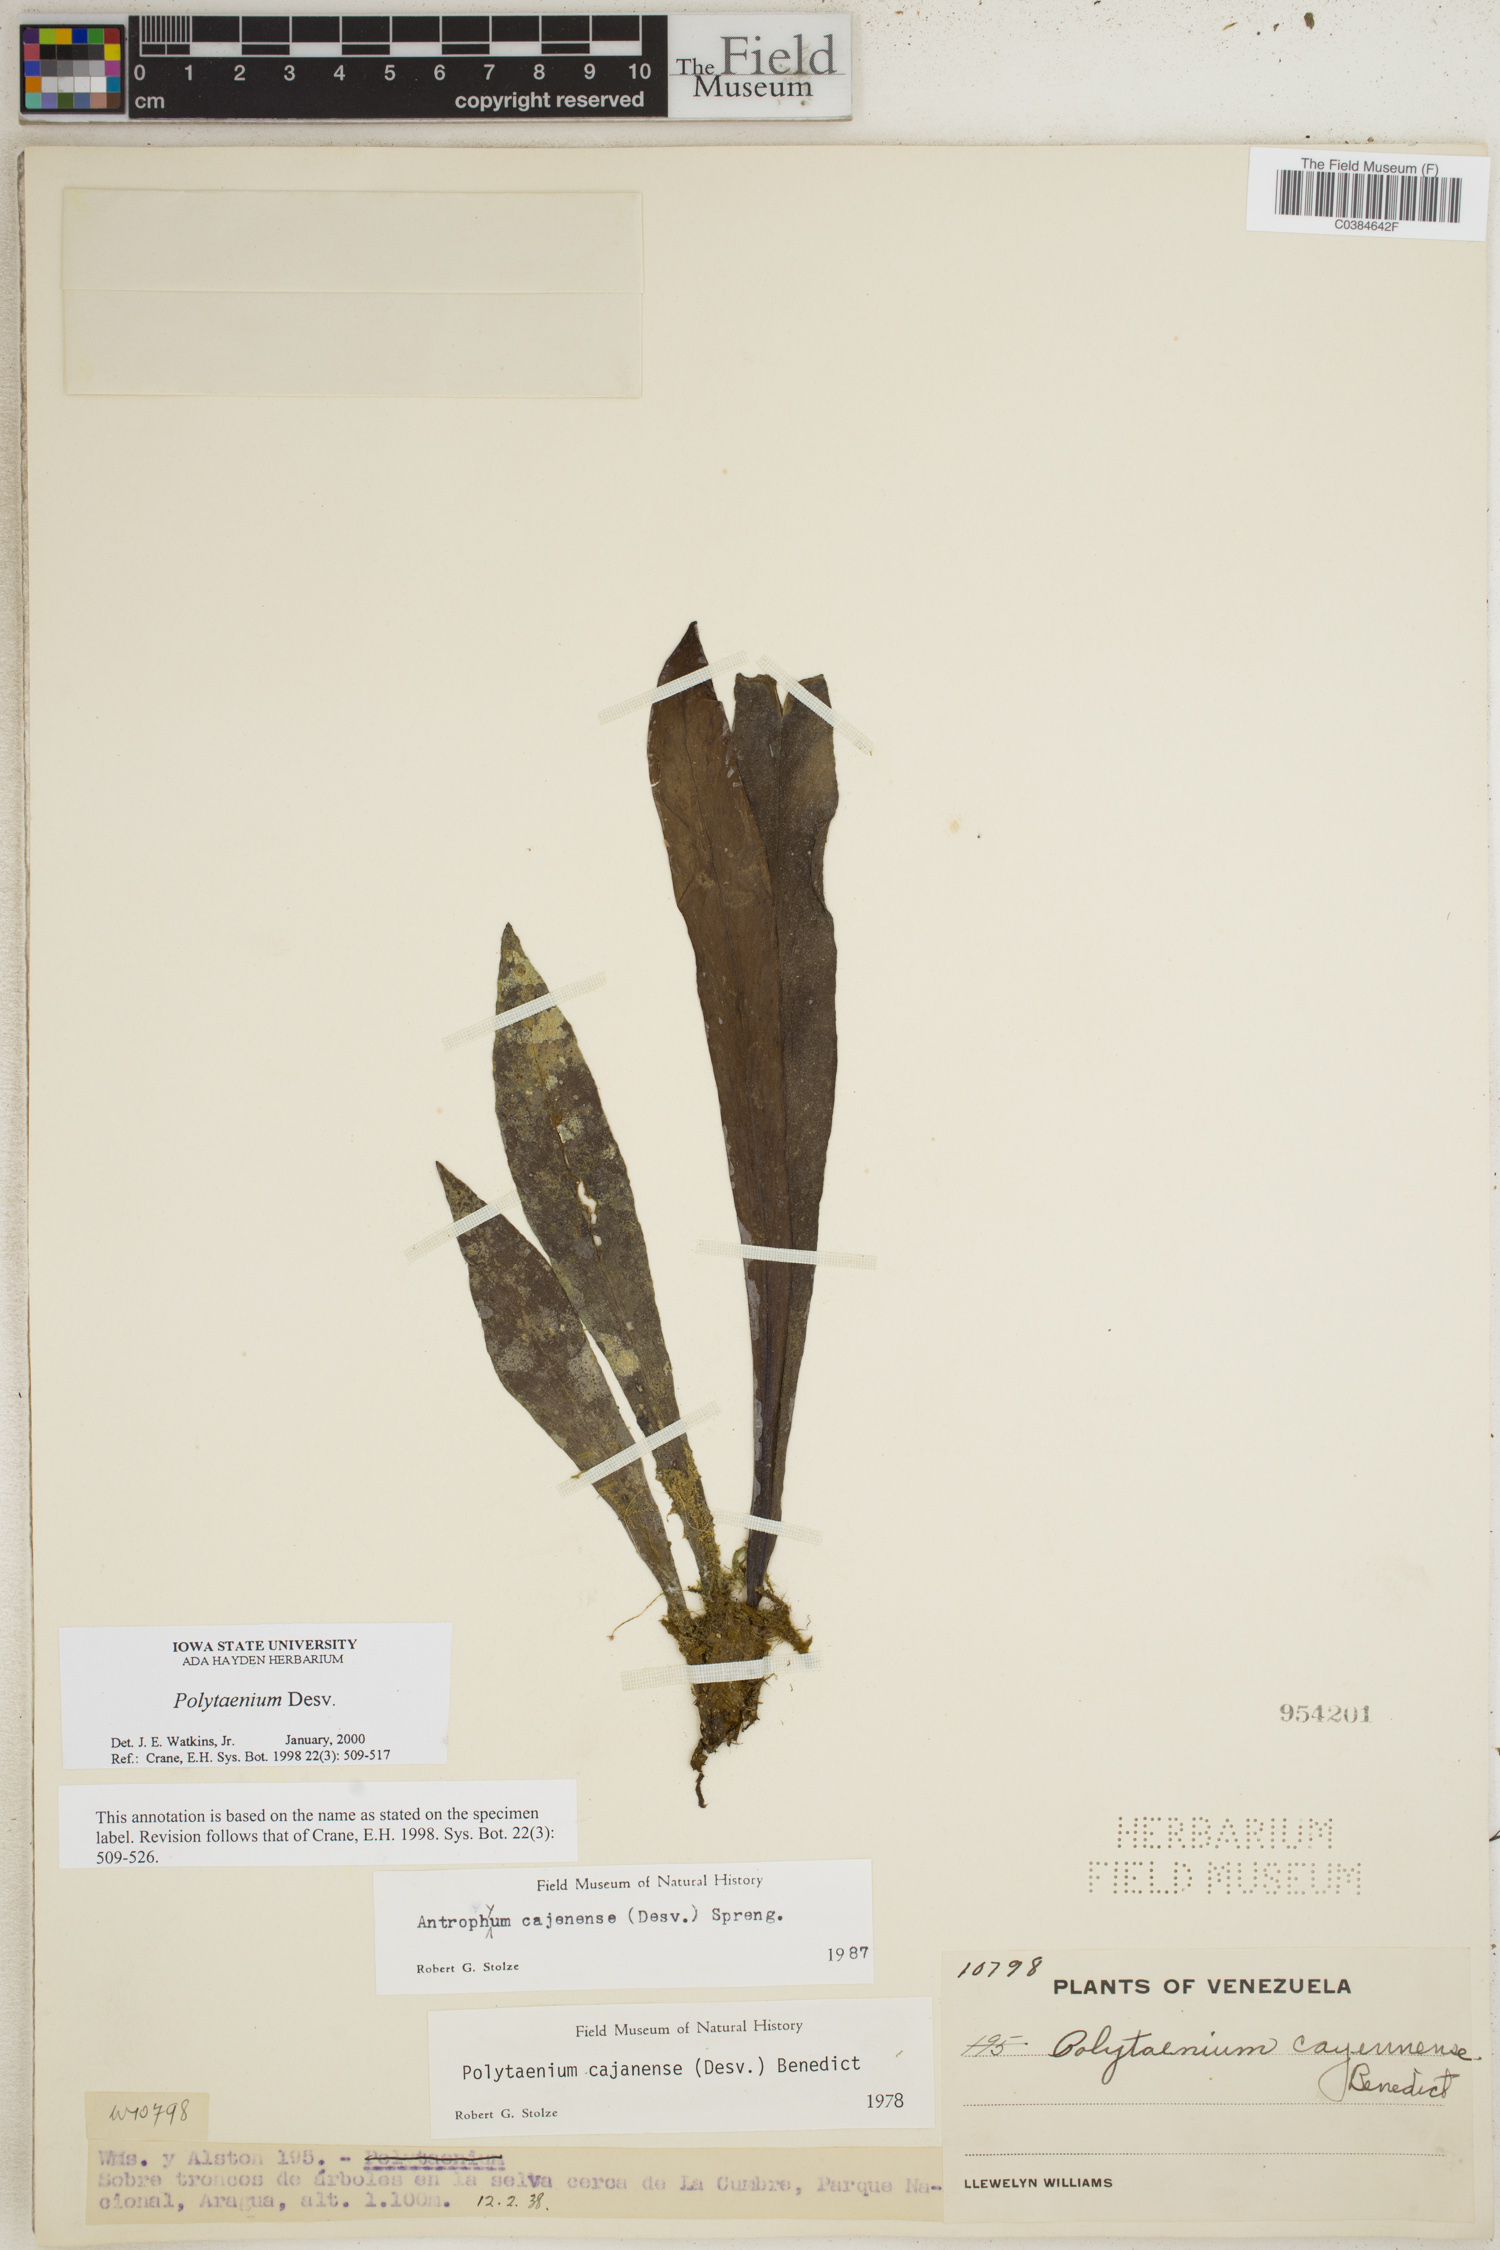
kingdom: Plantae
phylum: Tracheophyta
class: Polypodiopsida
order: Polypodiales
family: Pteridaceae
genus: Polytaenium
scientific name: Polytaenium
